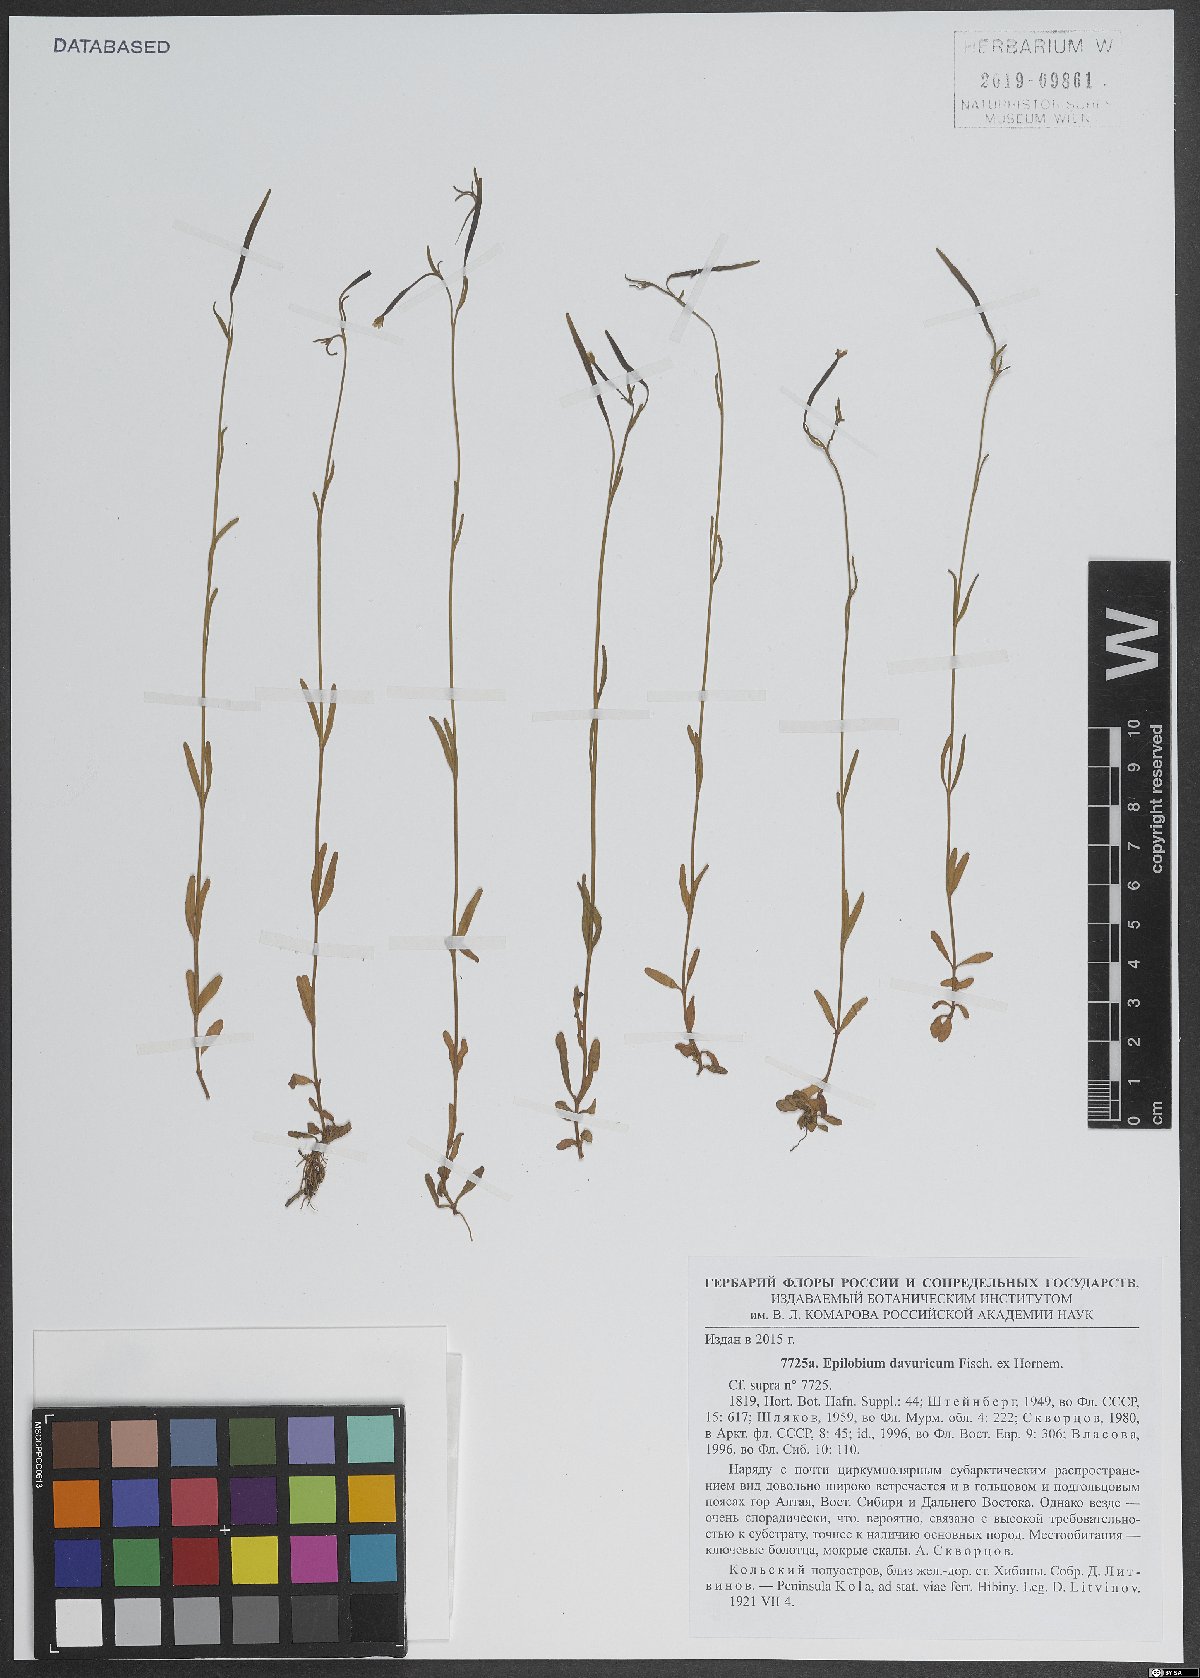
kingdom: Plantae
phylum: Tracheophyta
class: Magnoliopsida
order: Myrtales
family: Onagraceae
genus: Epilobium
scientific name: Epilobium davuricum
